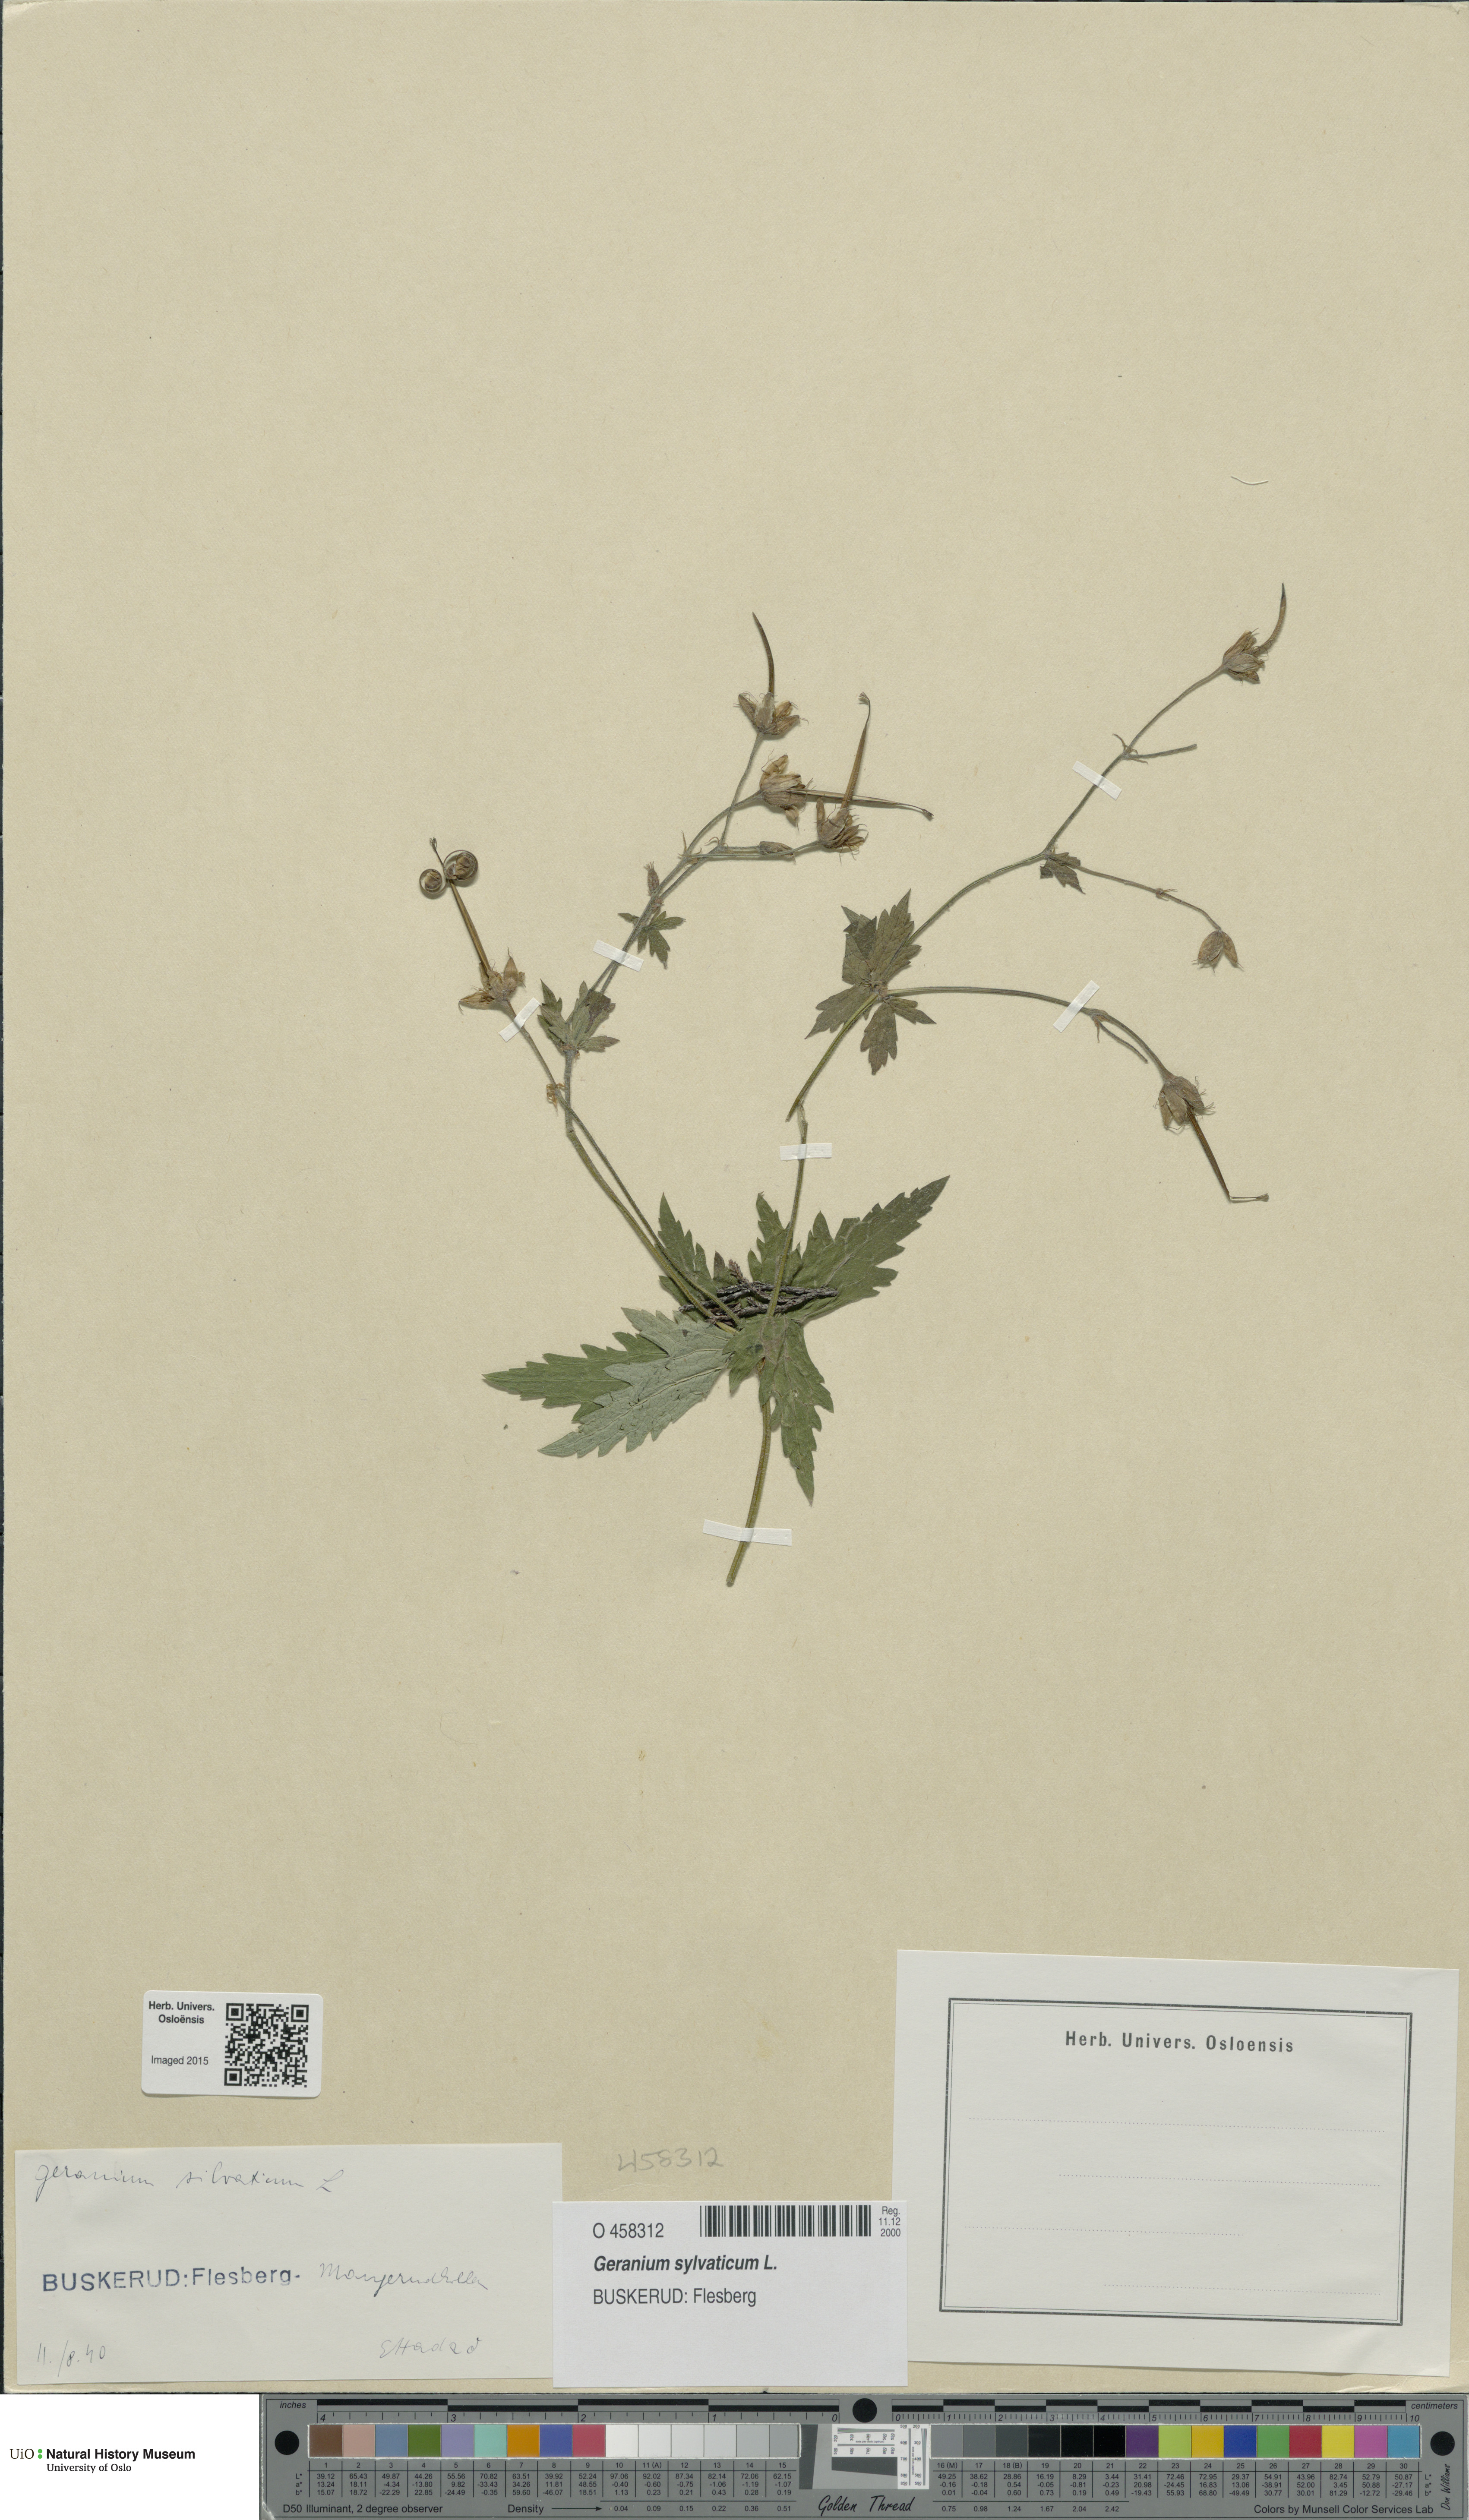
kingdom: Plantae
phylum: Tracheophyta
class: Magnoliopsida
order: Geraniales
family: Geraniaceae
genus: Geranium
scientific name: Geranium sylvaticum
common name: Wood crane's-bill
